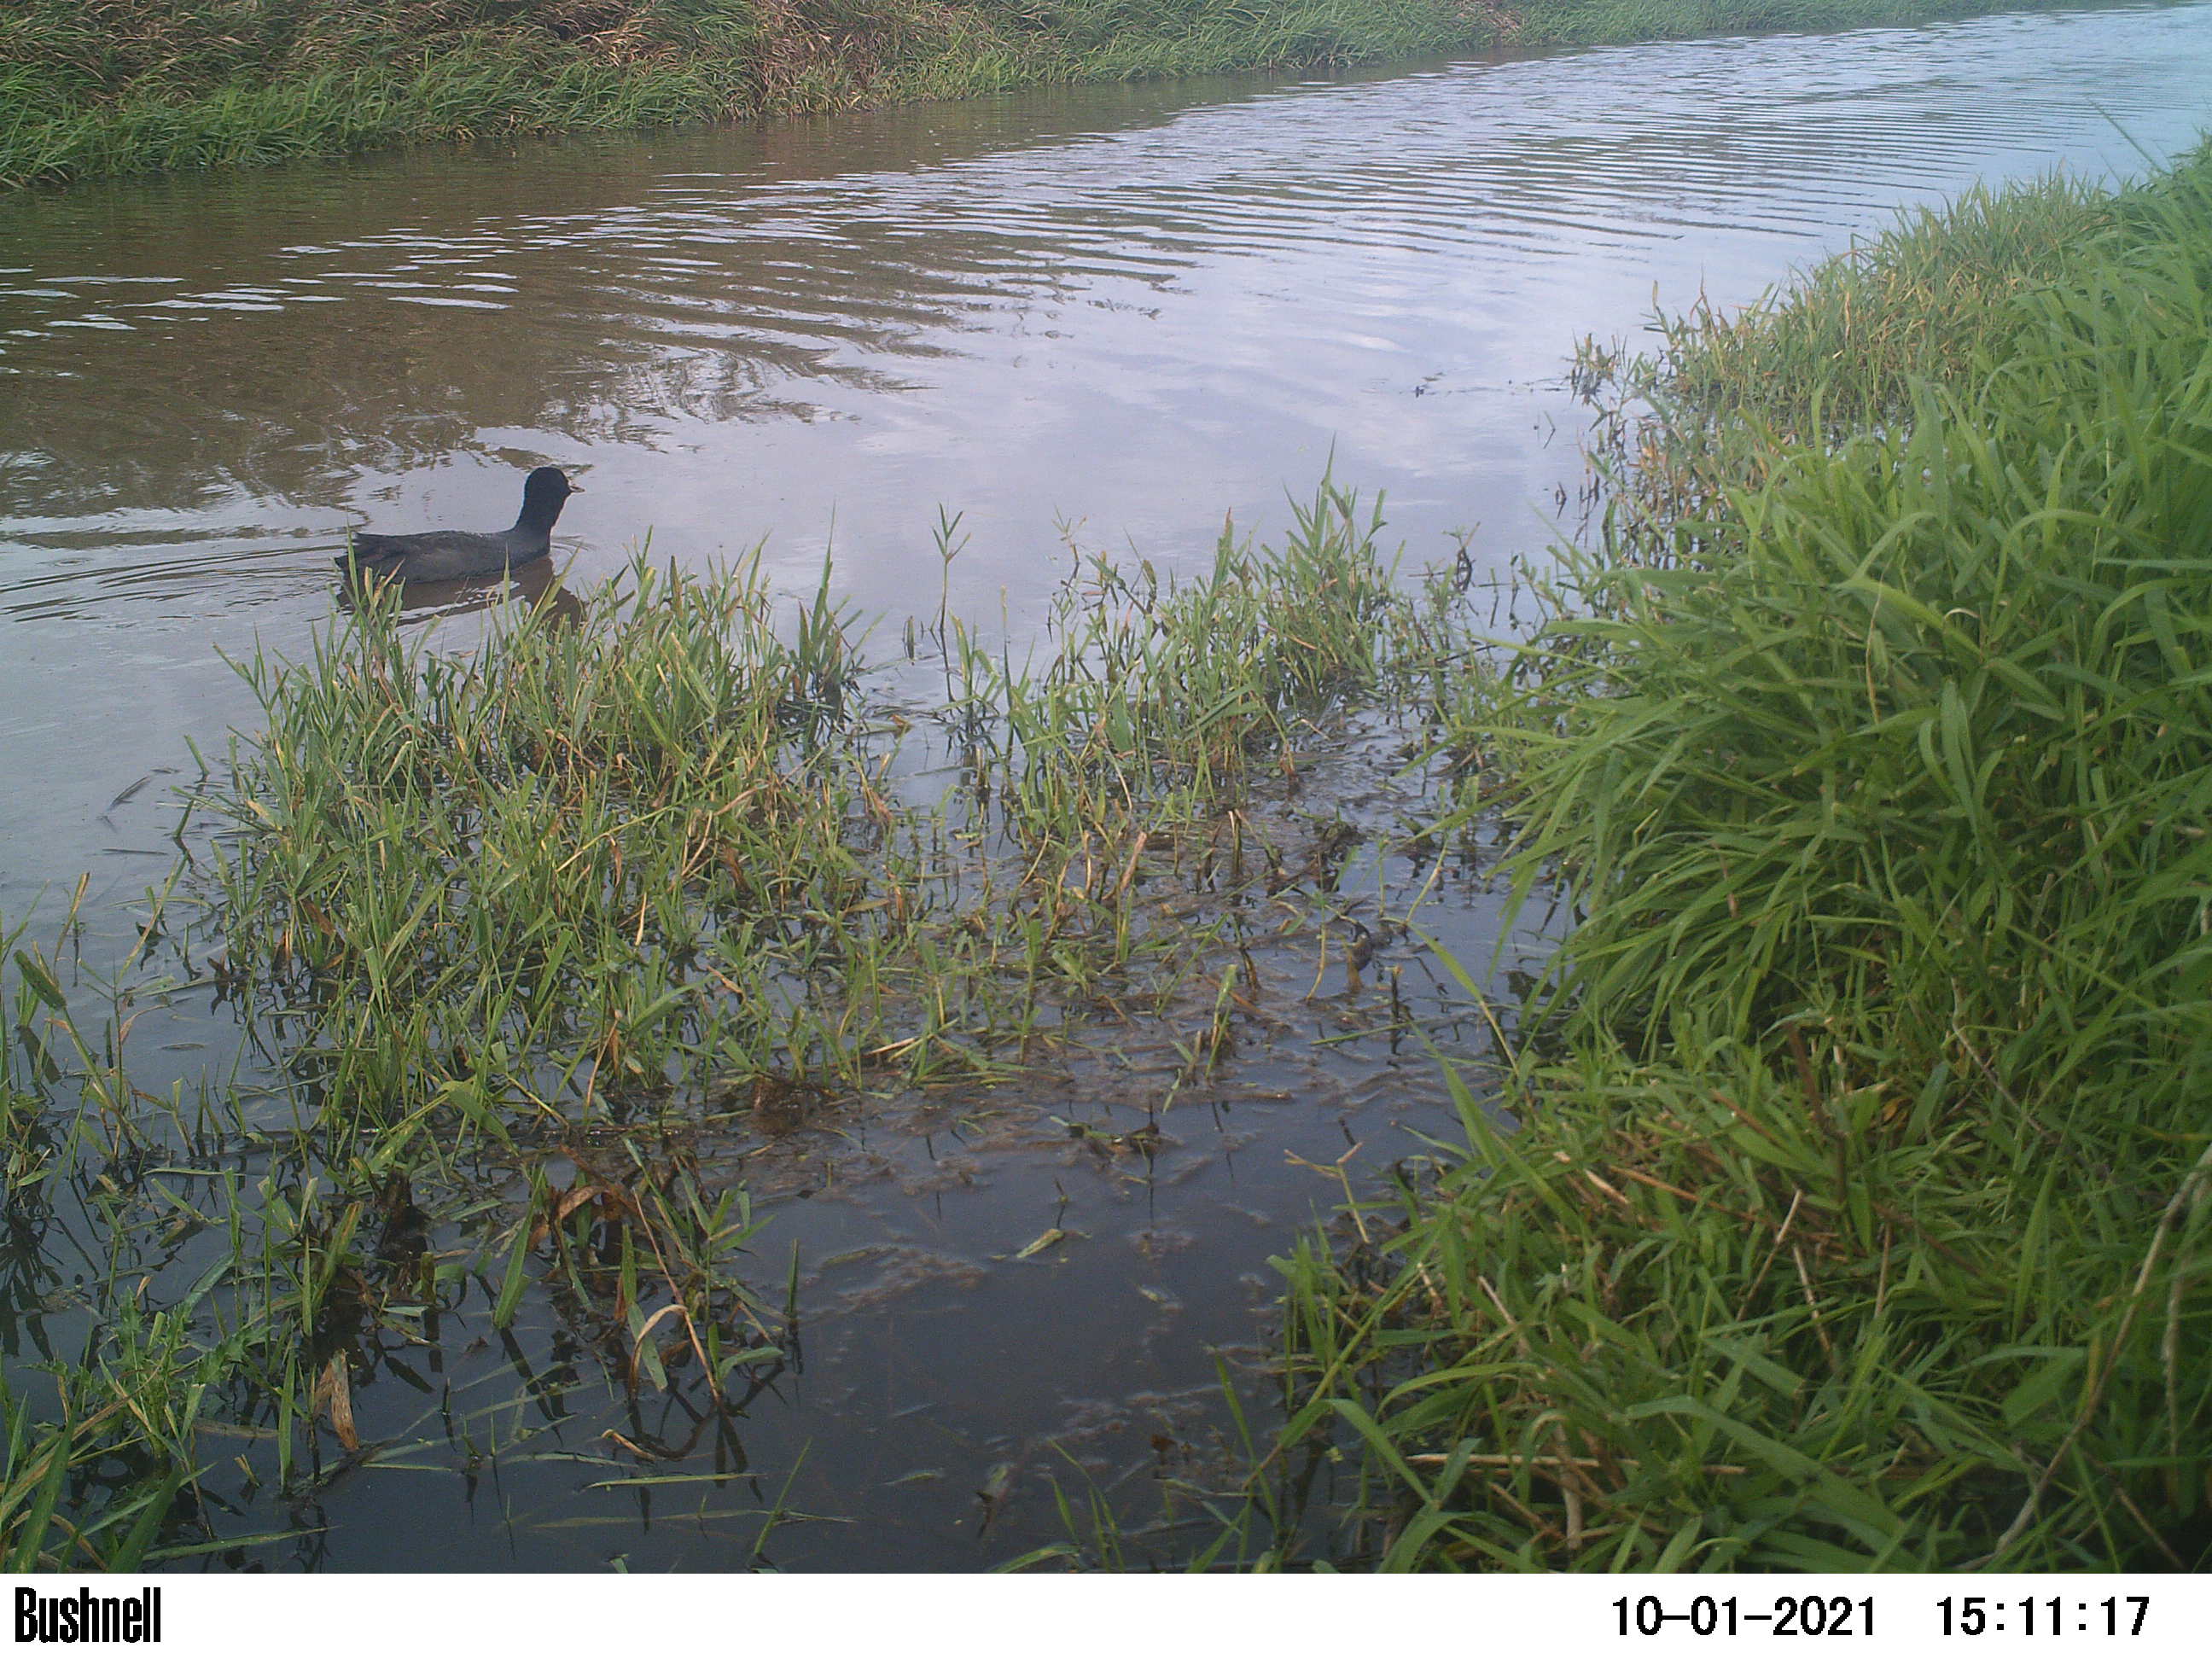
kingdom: Animalia
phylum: Chordata
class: Aves
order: Gruiformes
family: Rallidae
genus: Fulica
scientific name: Fulica atra
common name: Eurasian coot
